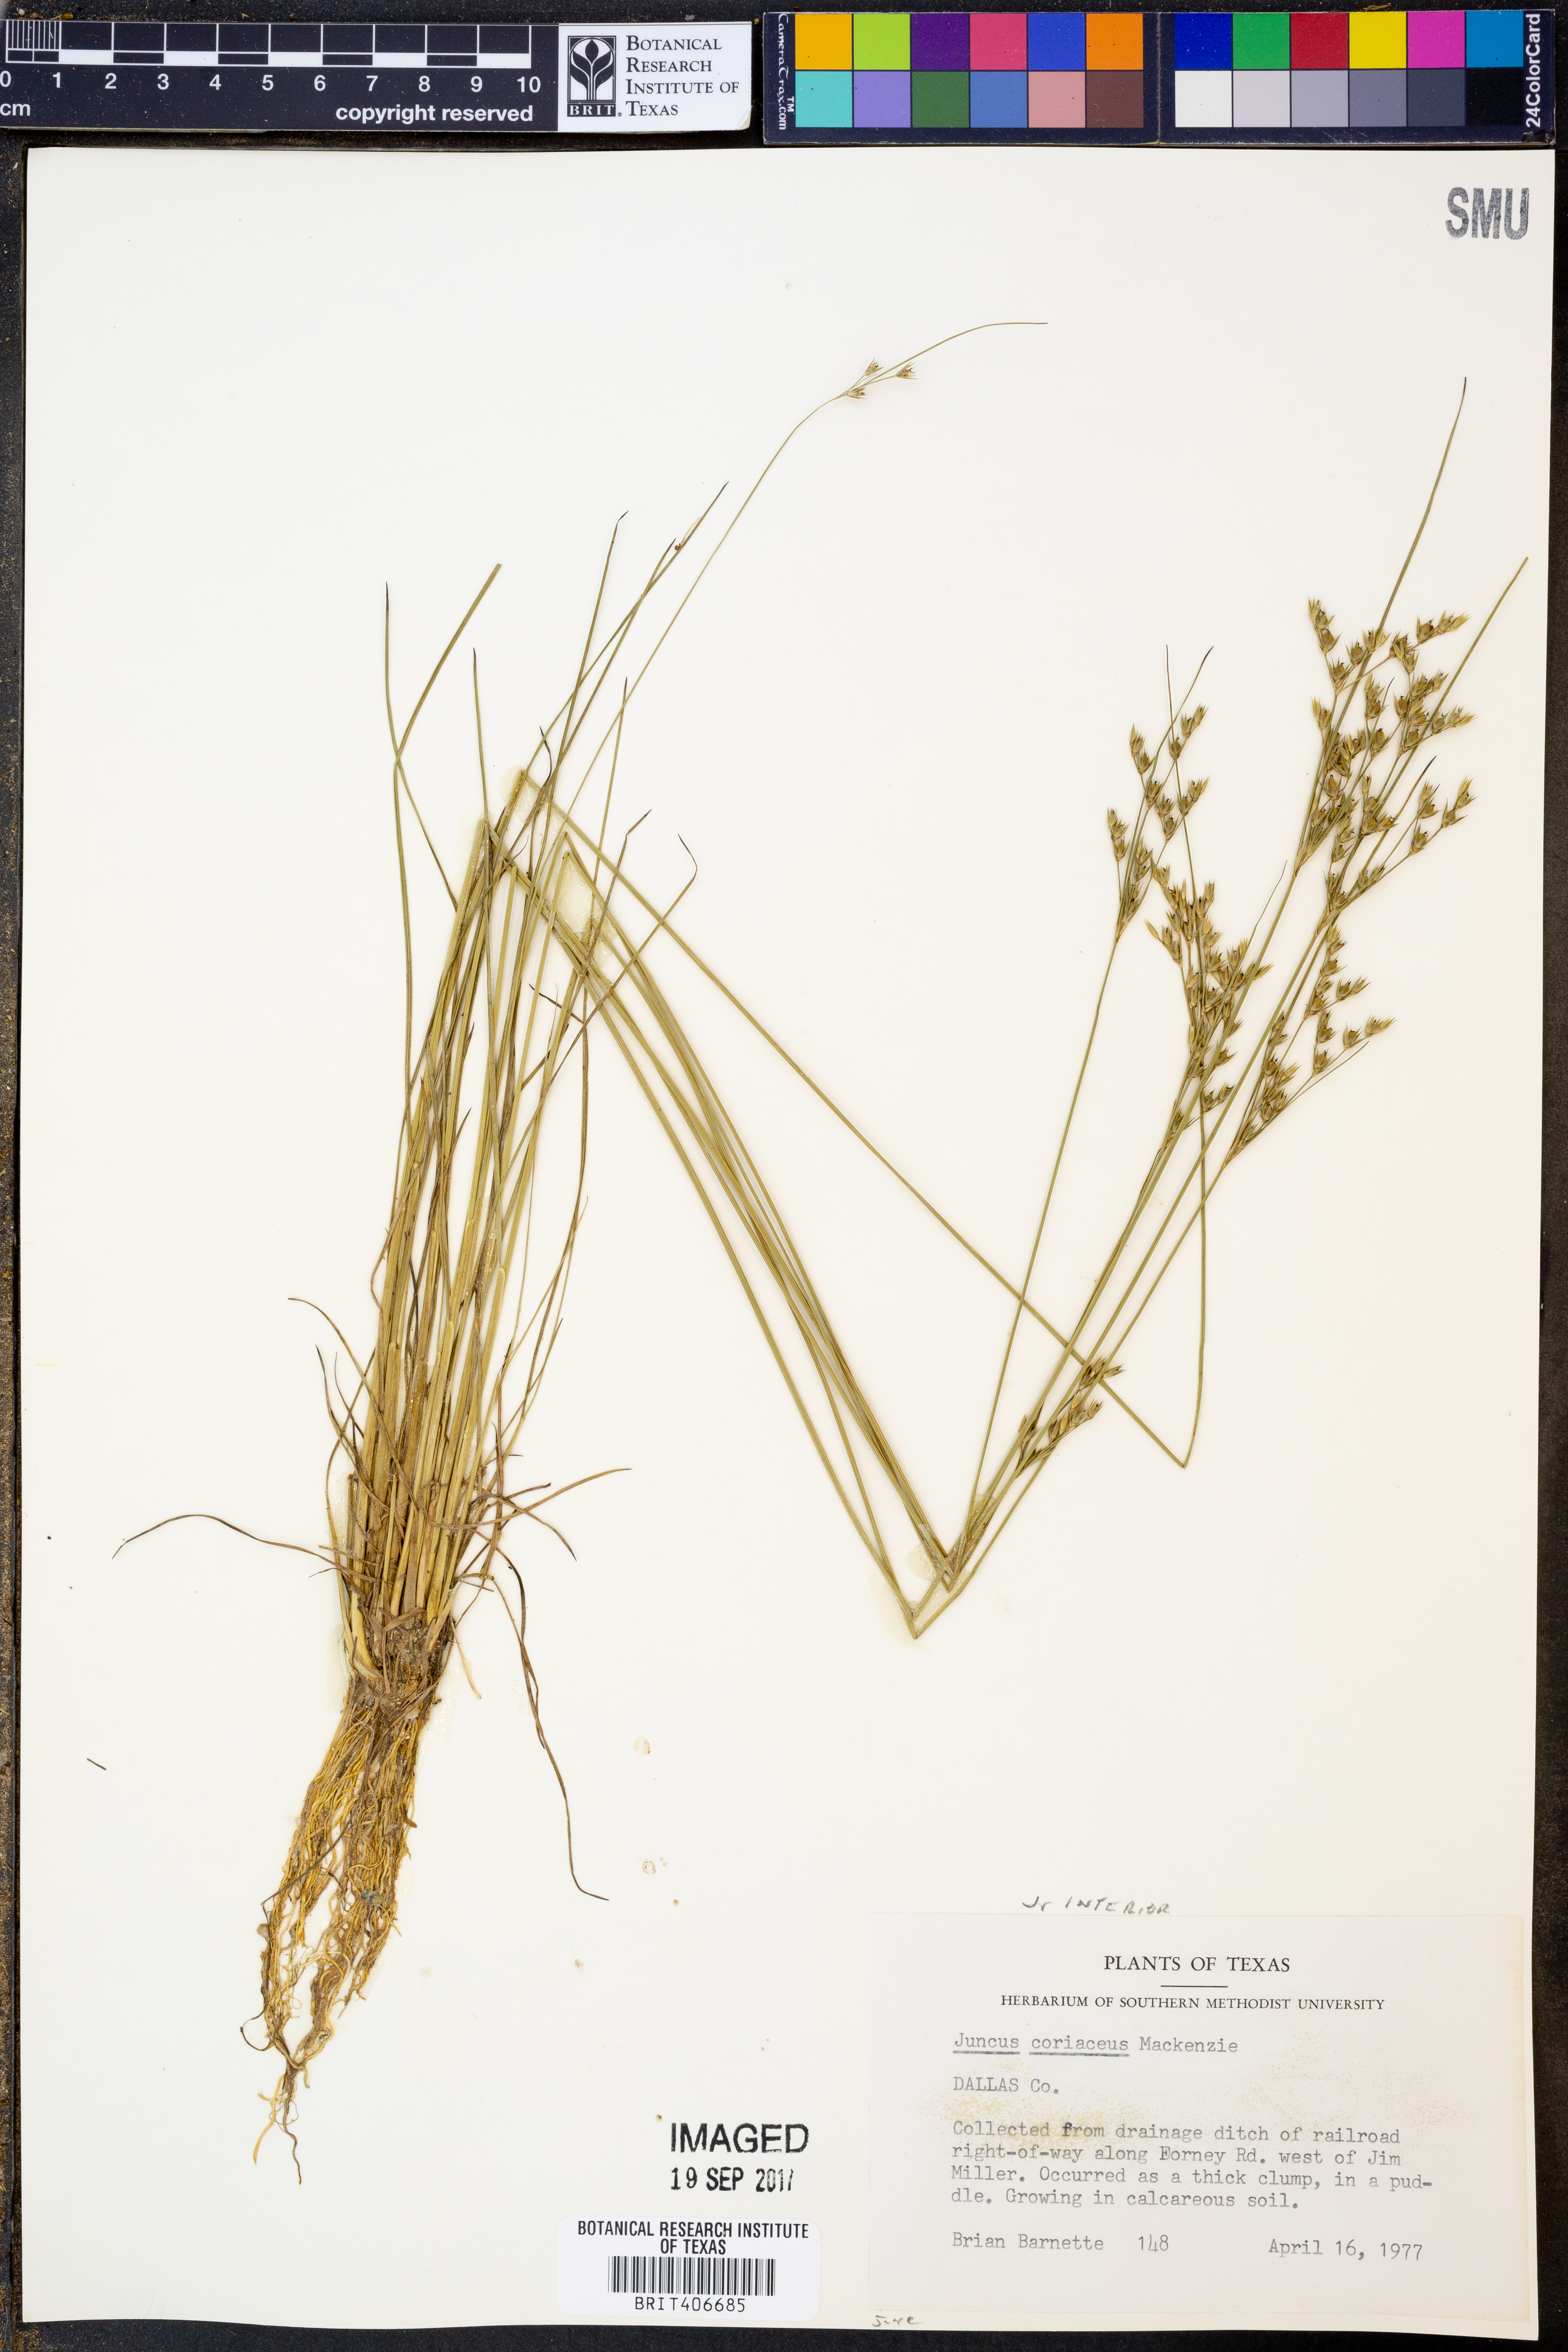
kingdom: Plantae
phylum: Tracheophyta
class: Liliopsida
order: Poales
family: Juncaceae
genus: Juncus
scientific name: Juncus coriaceus
